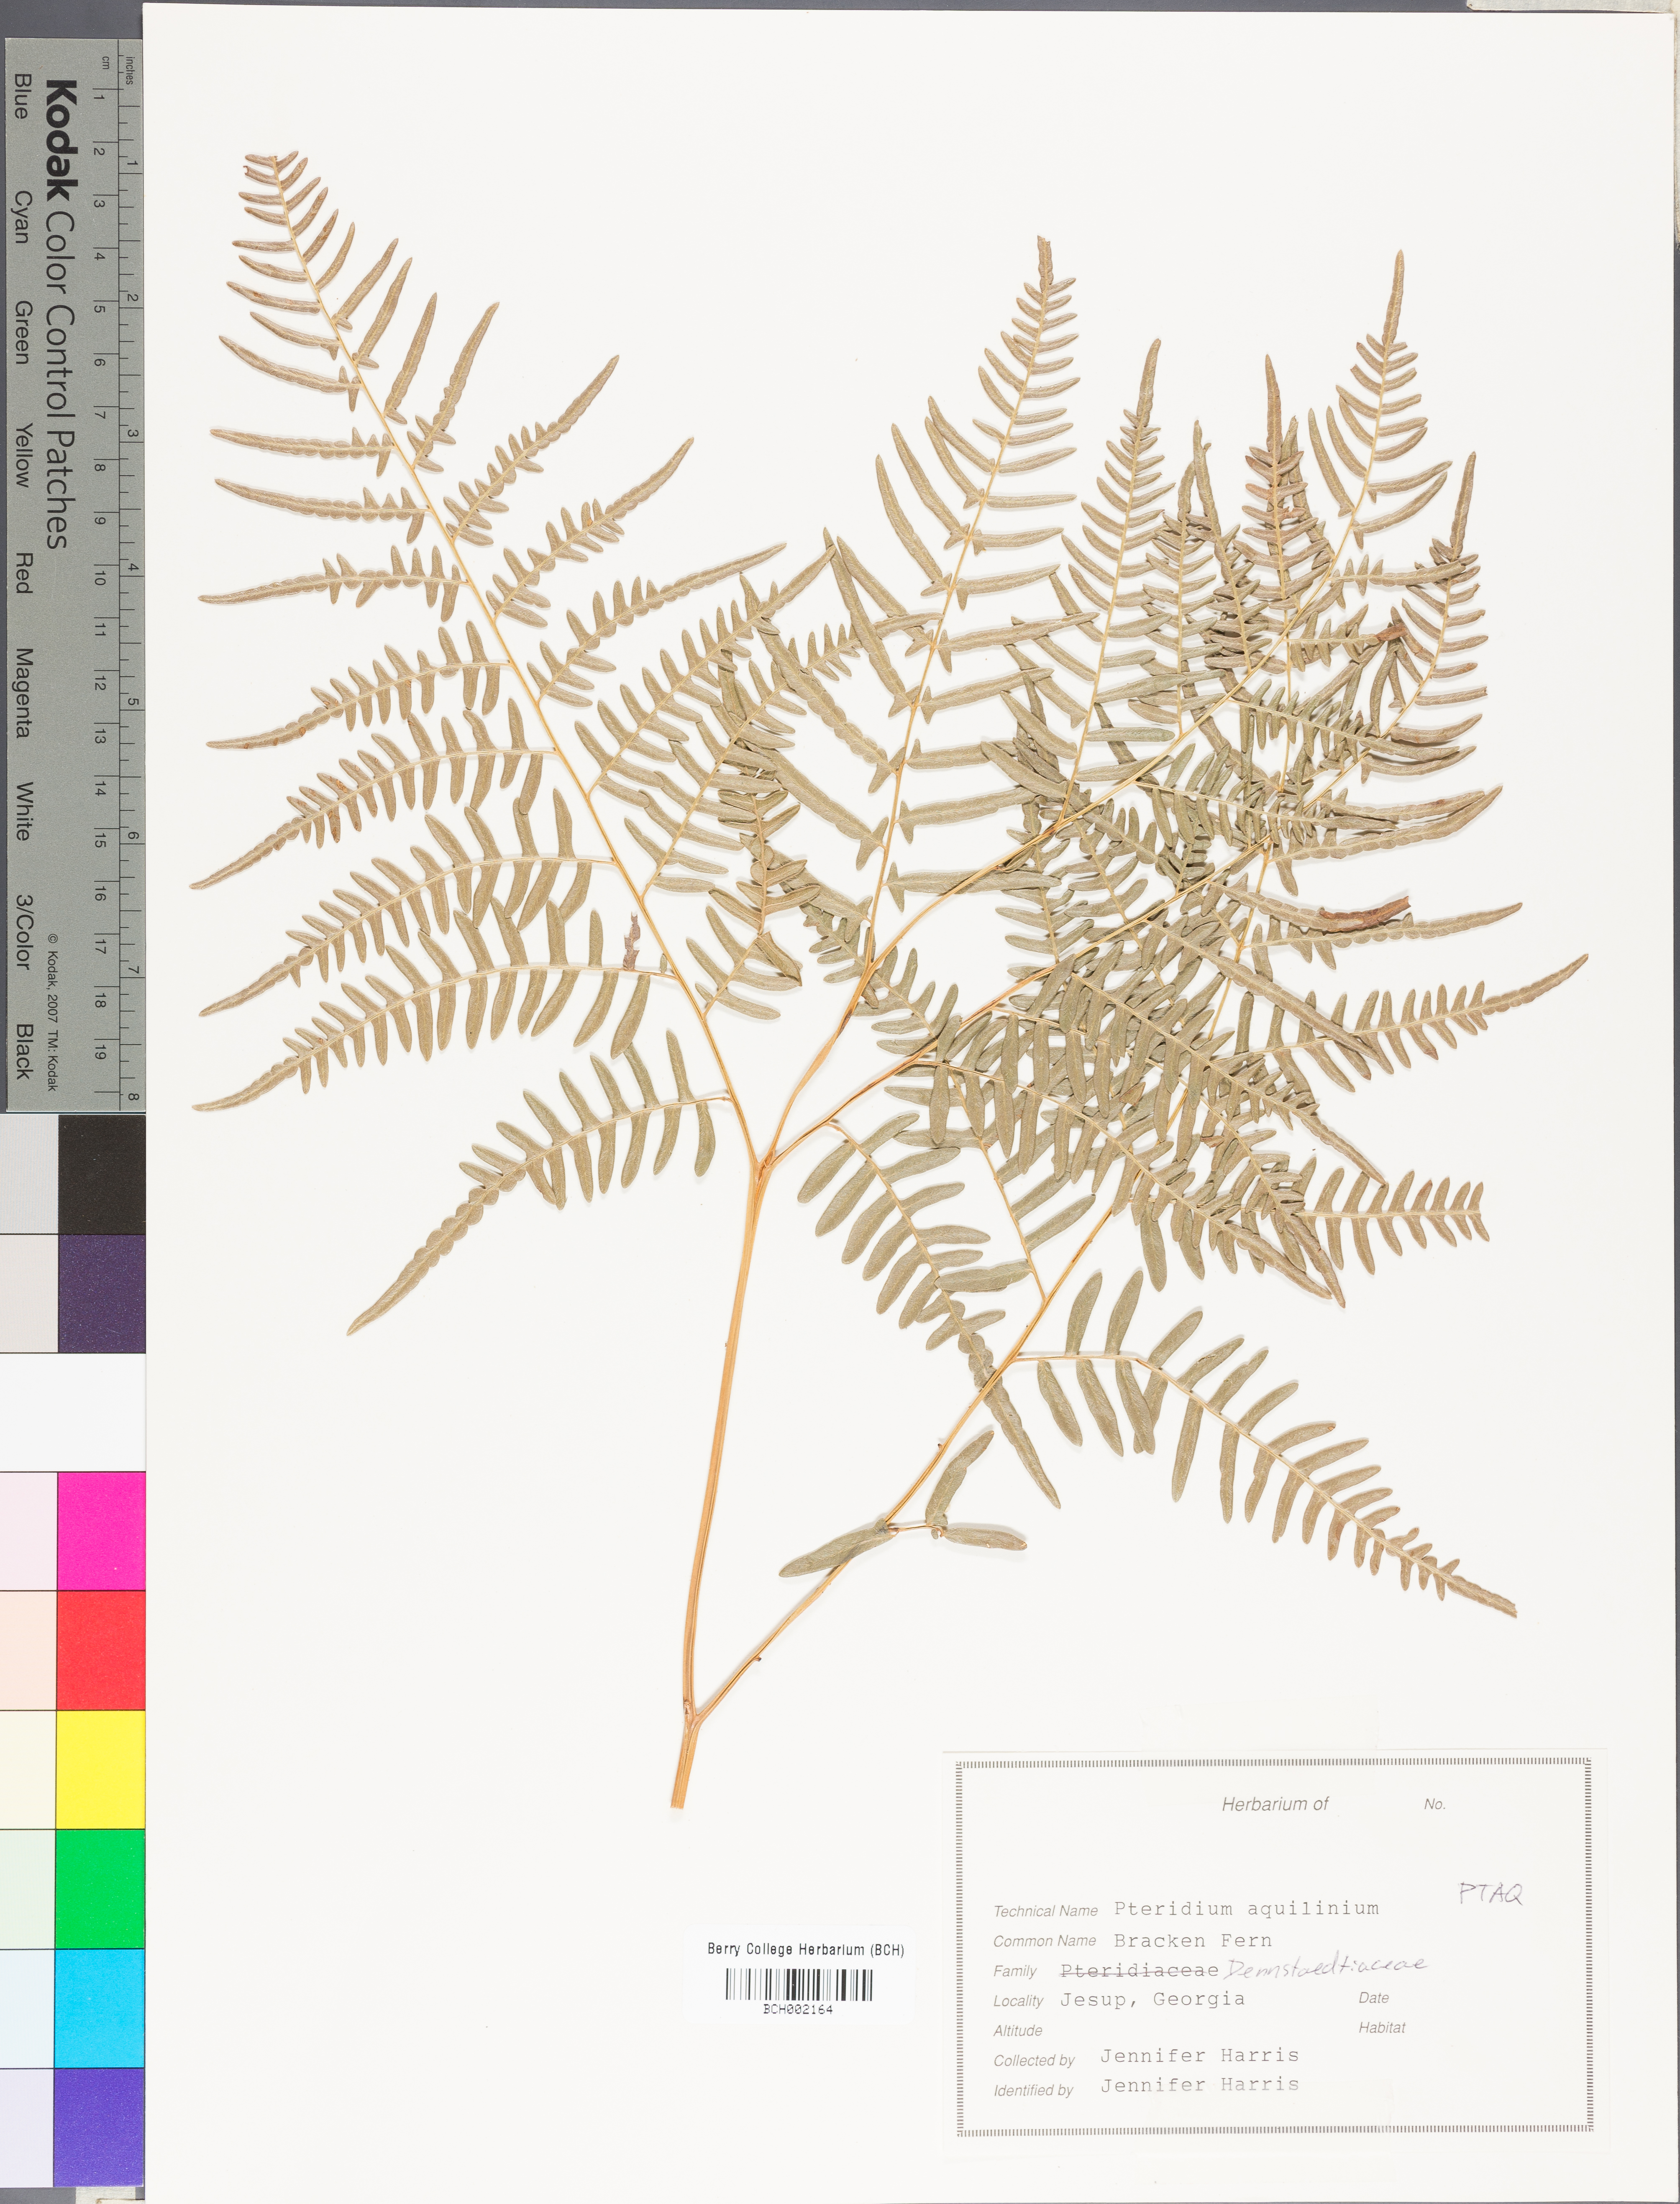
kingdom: Plantae
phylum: Tracheophyta
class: Polypodiopsida
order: Polypodiales
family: Dennstaedtiaceae
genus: Pteridium
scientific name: Pteridium aquilinum
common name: Bracken
